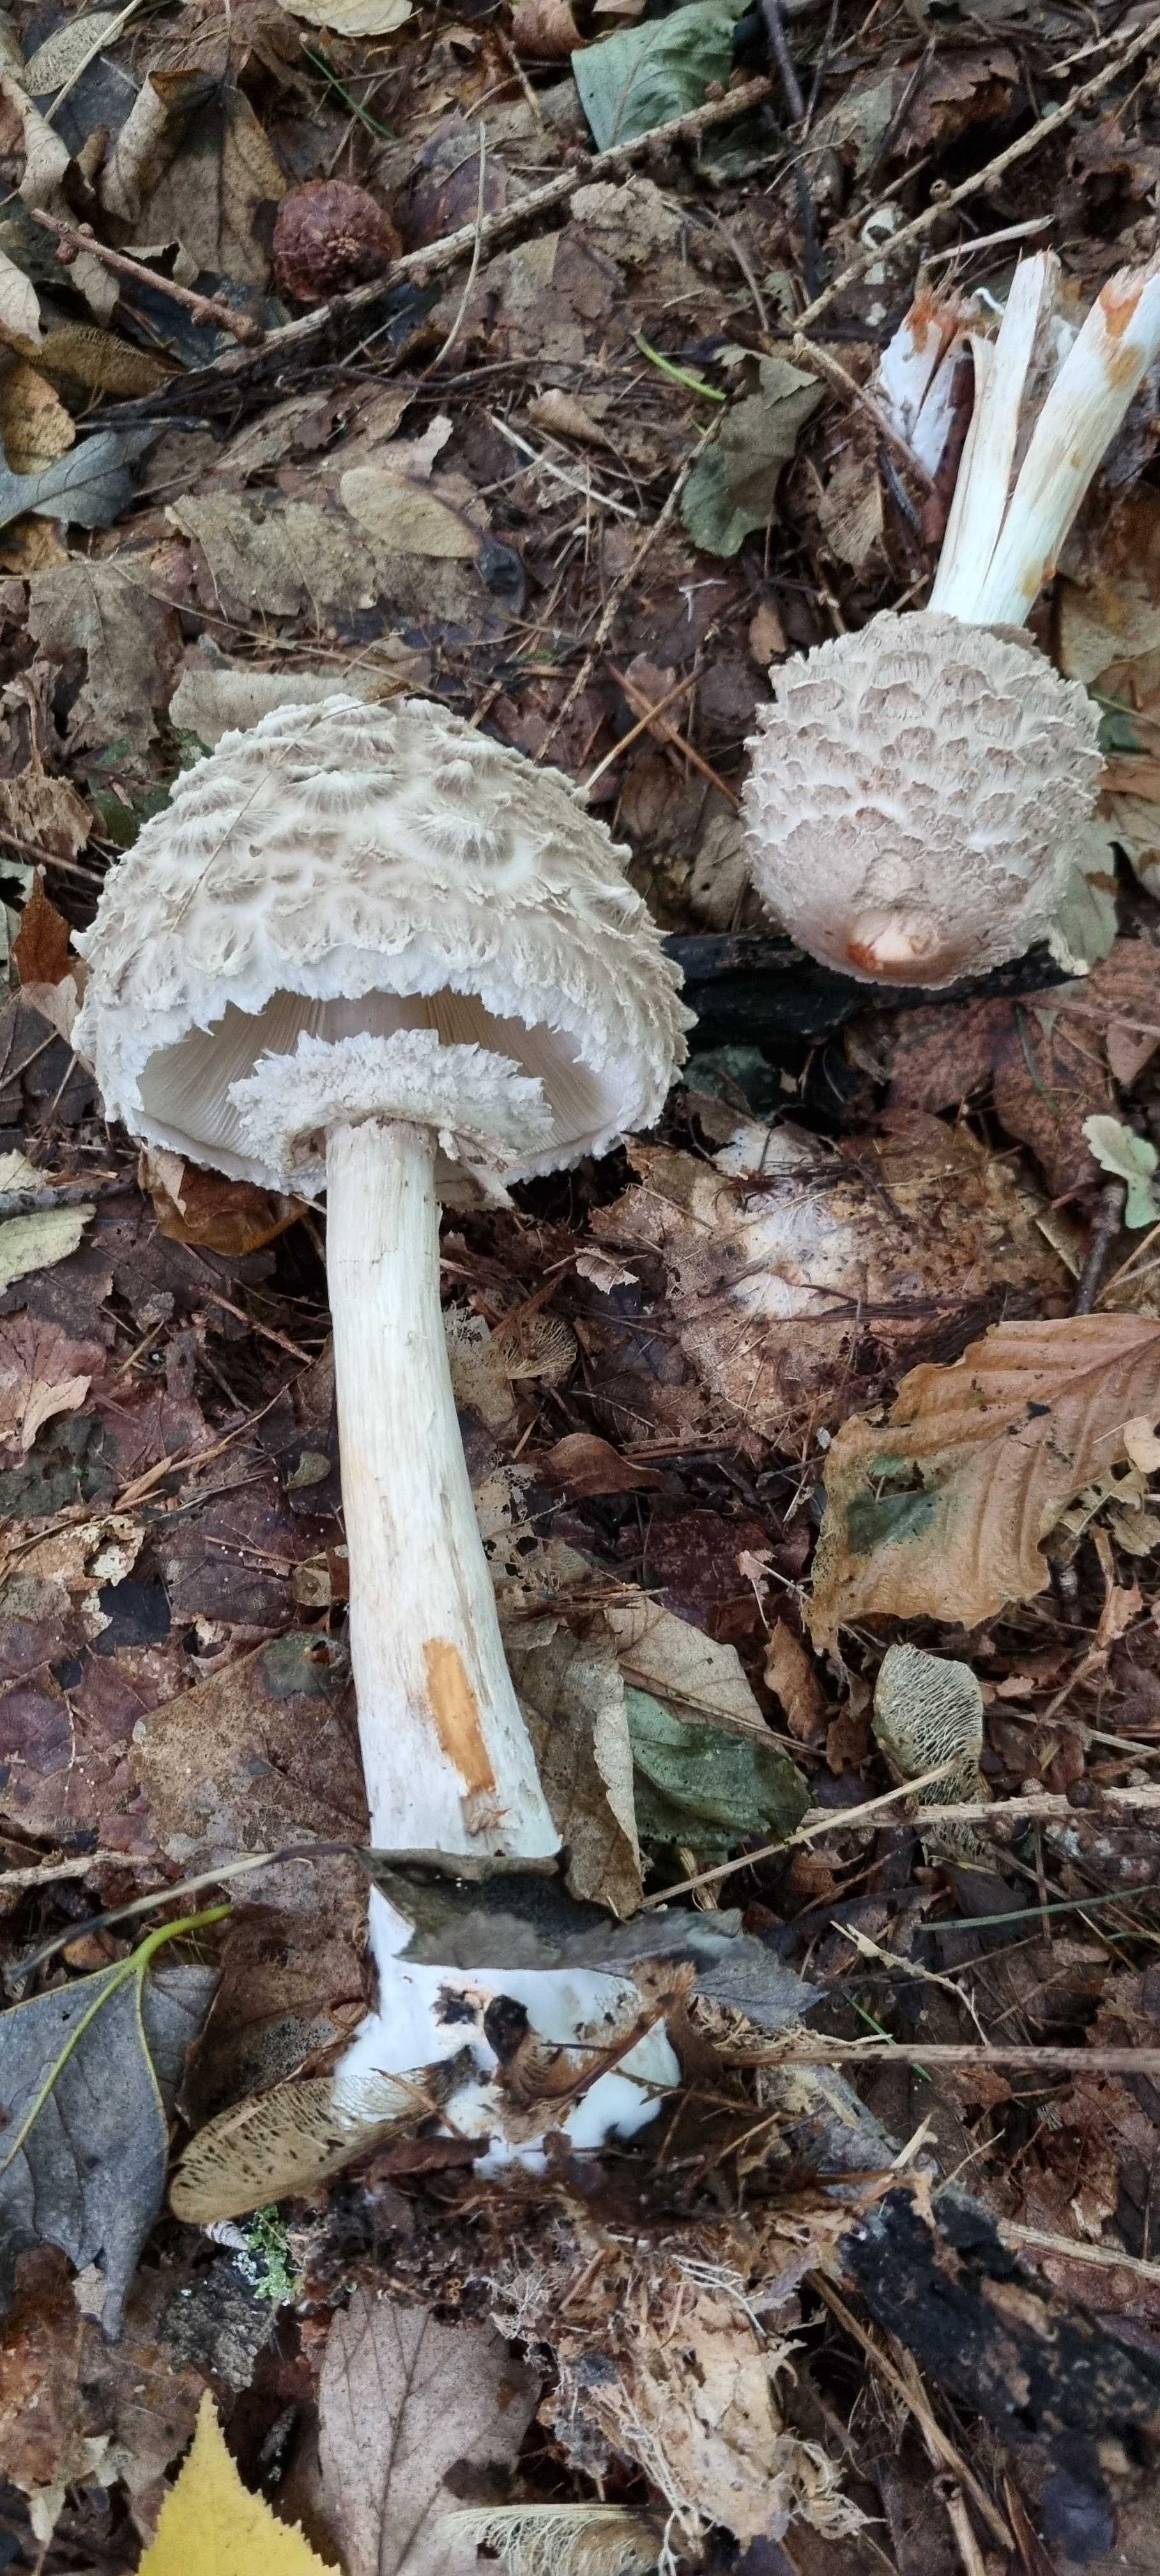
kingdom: Fungi
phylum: Basidiomycota
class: Agaricomycetes
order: Agaricales
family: Agaricaceae
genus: Chlorophyllum
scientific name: Chlorophyllum olivieri
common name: almindelig rabarberhat
